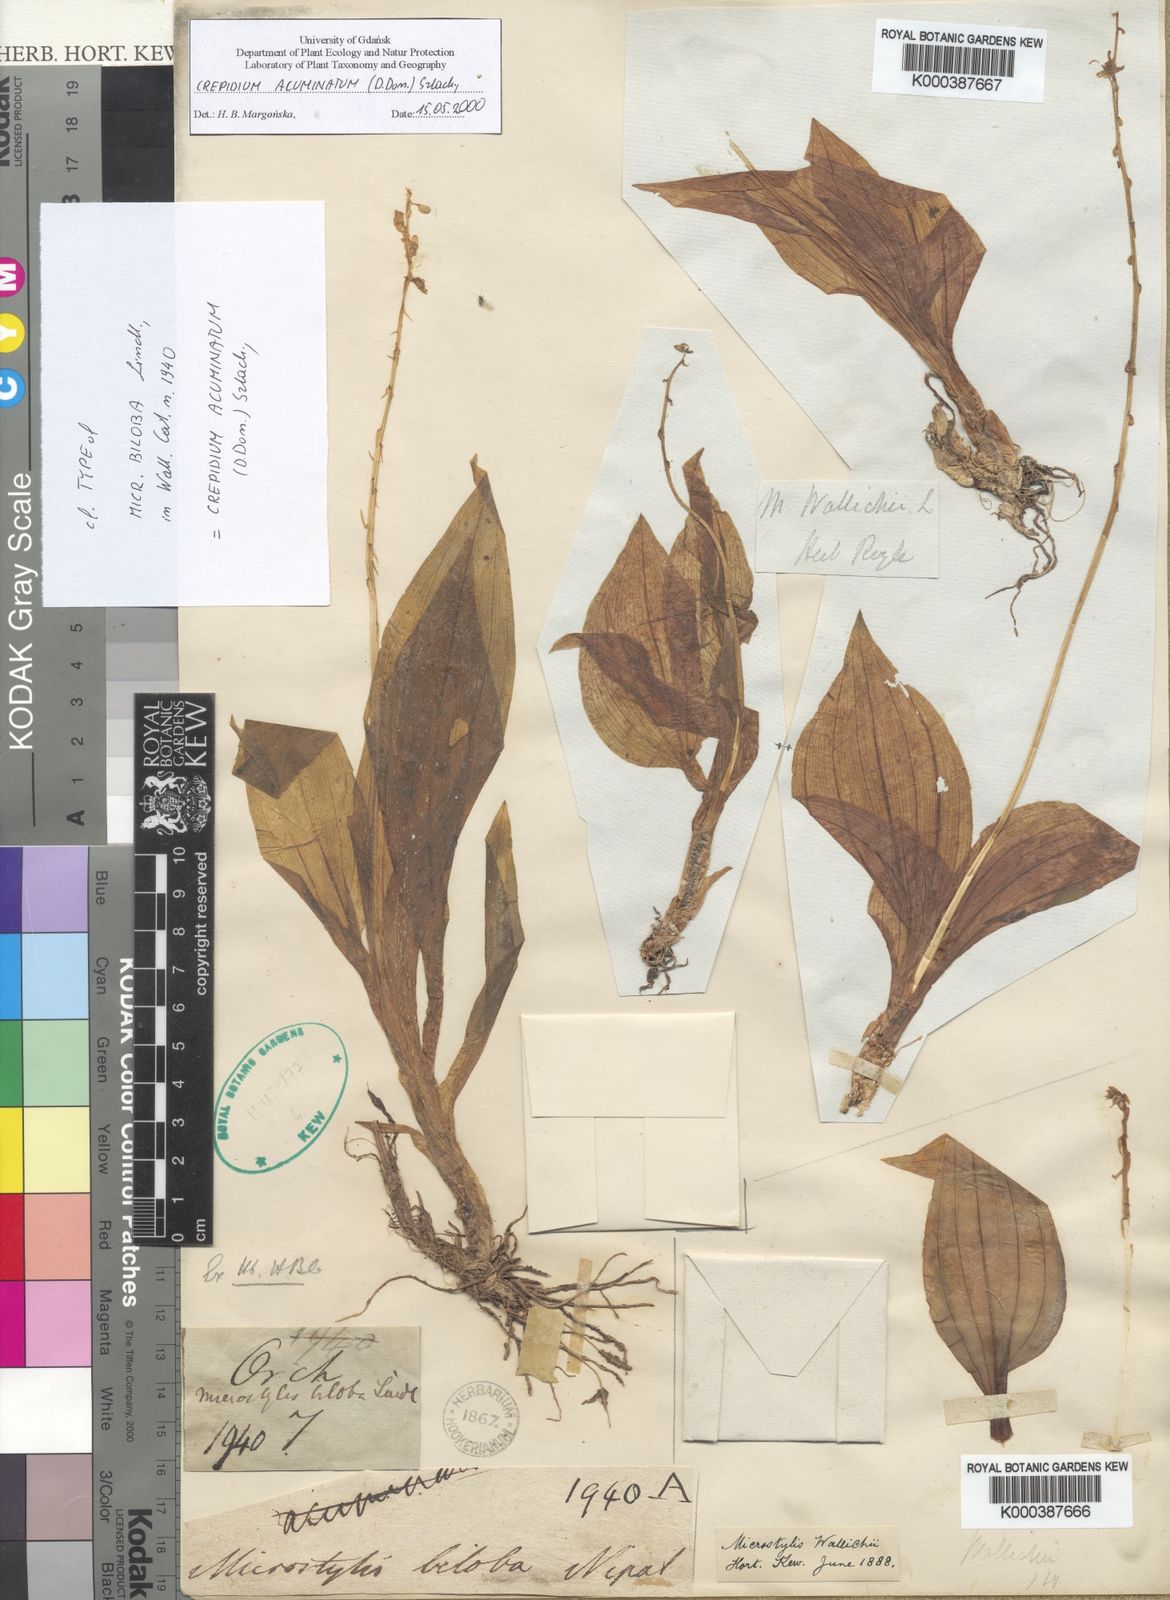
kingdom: Plantae
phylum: Tracheophyta
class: Liliopsida
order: Asparagales
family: Orchidaceae
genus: Crepidium
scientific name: Crepidium acuminatum
